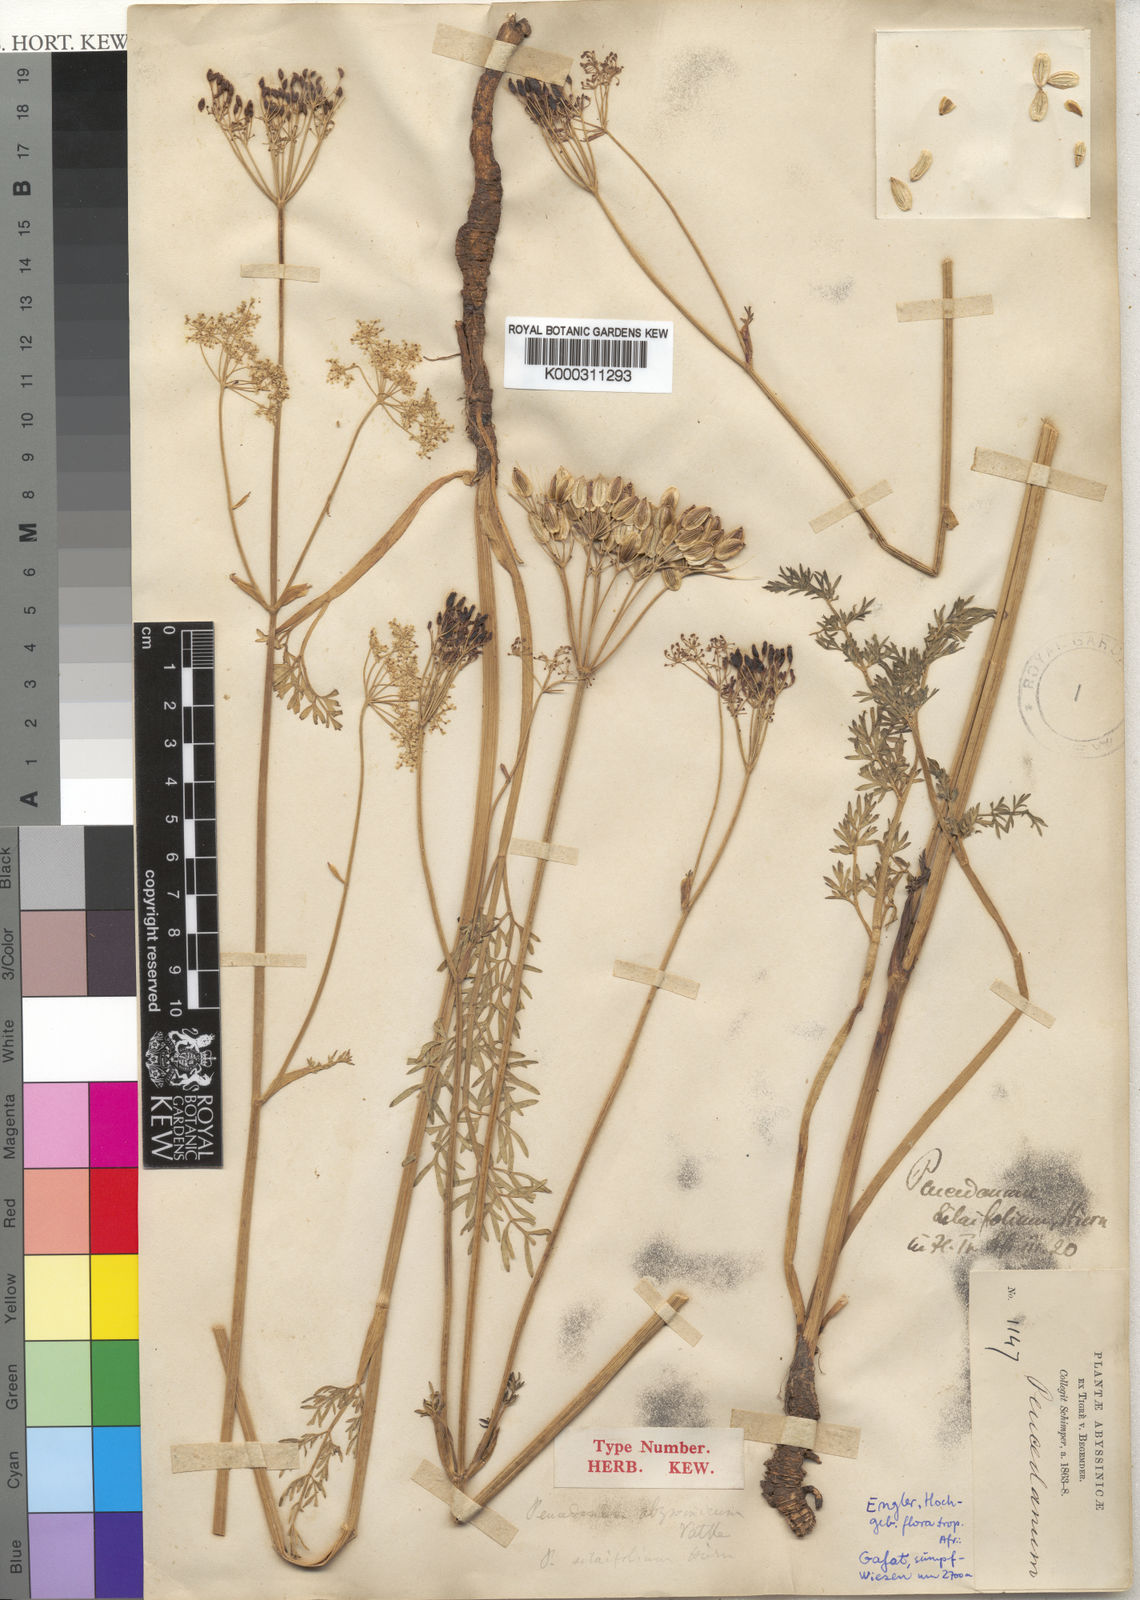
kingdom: Plantae
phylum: Tracheophyta
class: Magnoliopsida
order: Apiales
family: Apiaceae
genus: Afrosciadium
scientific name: Afrosciadium abyssinicum
